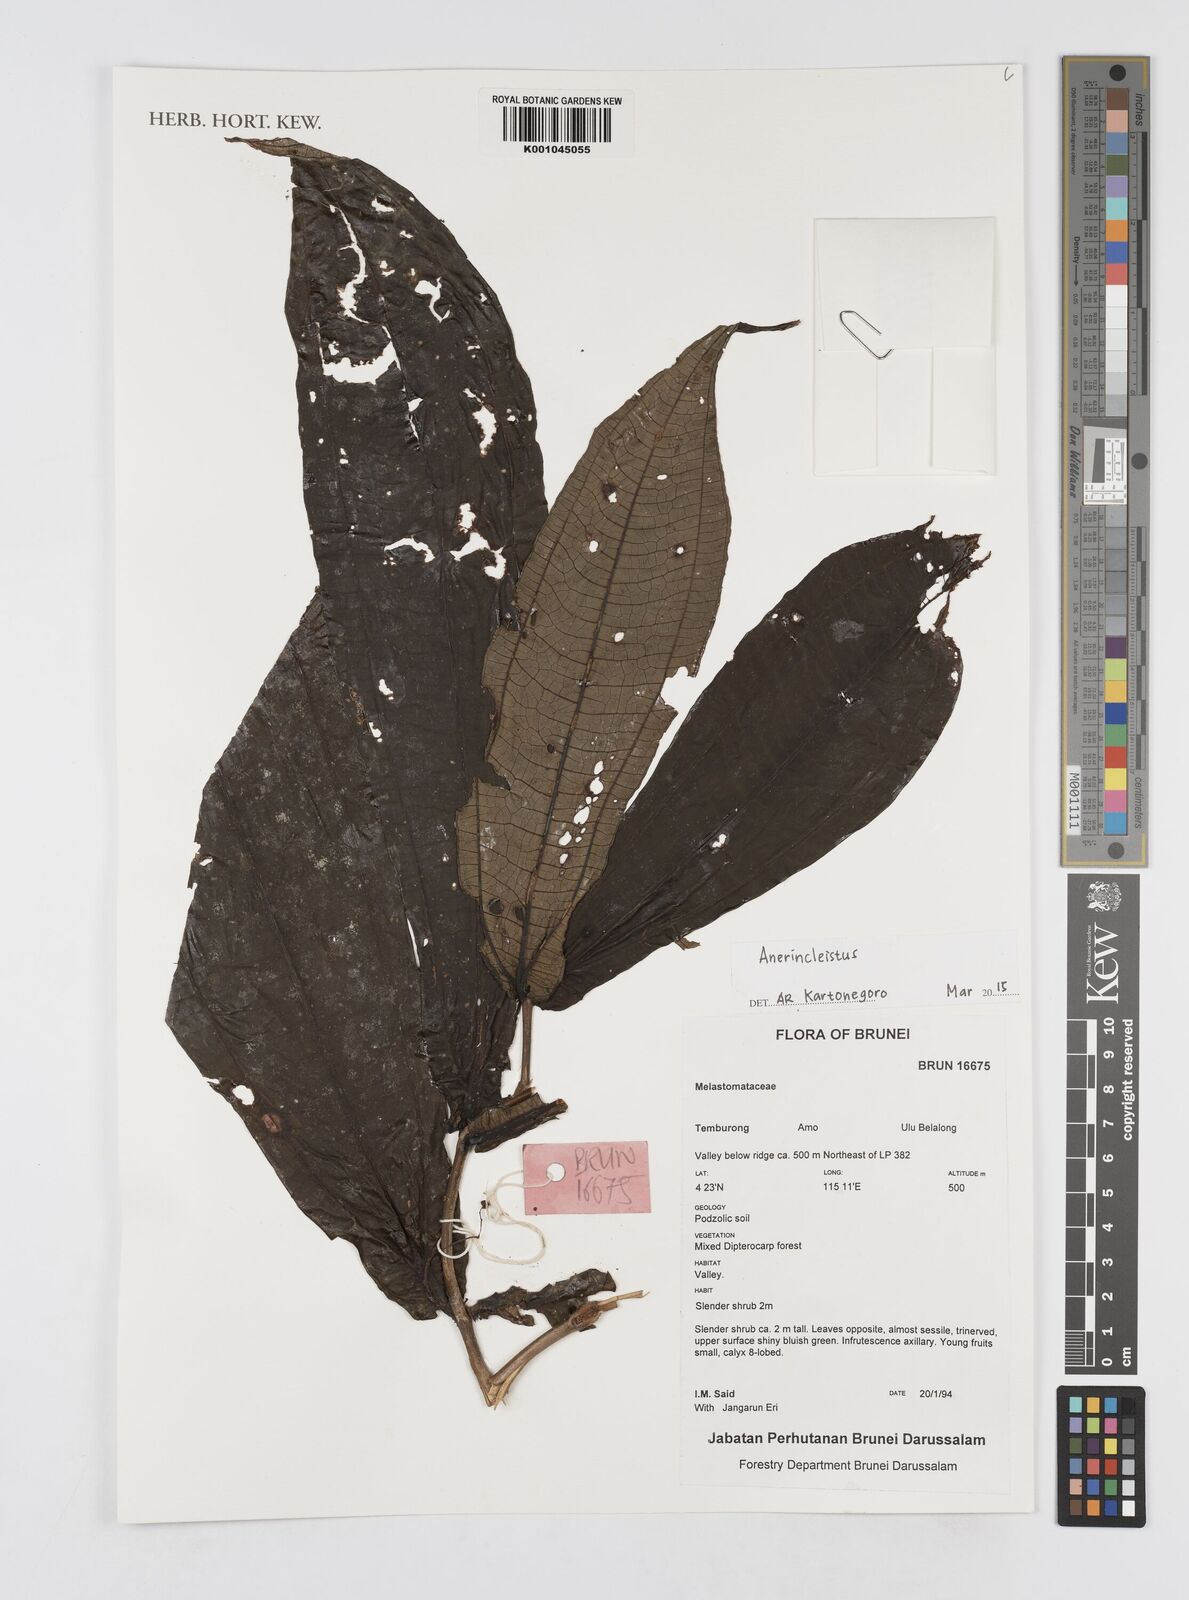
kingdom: Plantae
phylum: Tracheophyta
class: Magnoliopsida
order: Myrtales
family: Melastomataceae
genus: Anerincleistus
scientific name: Anerincleistus
